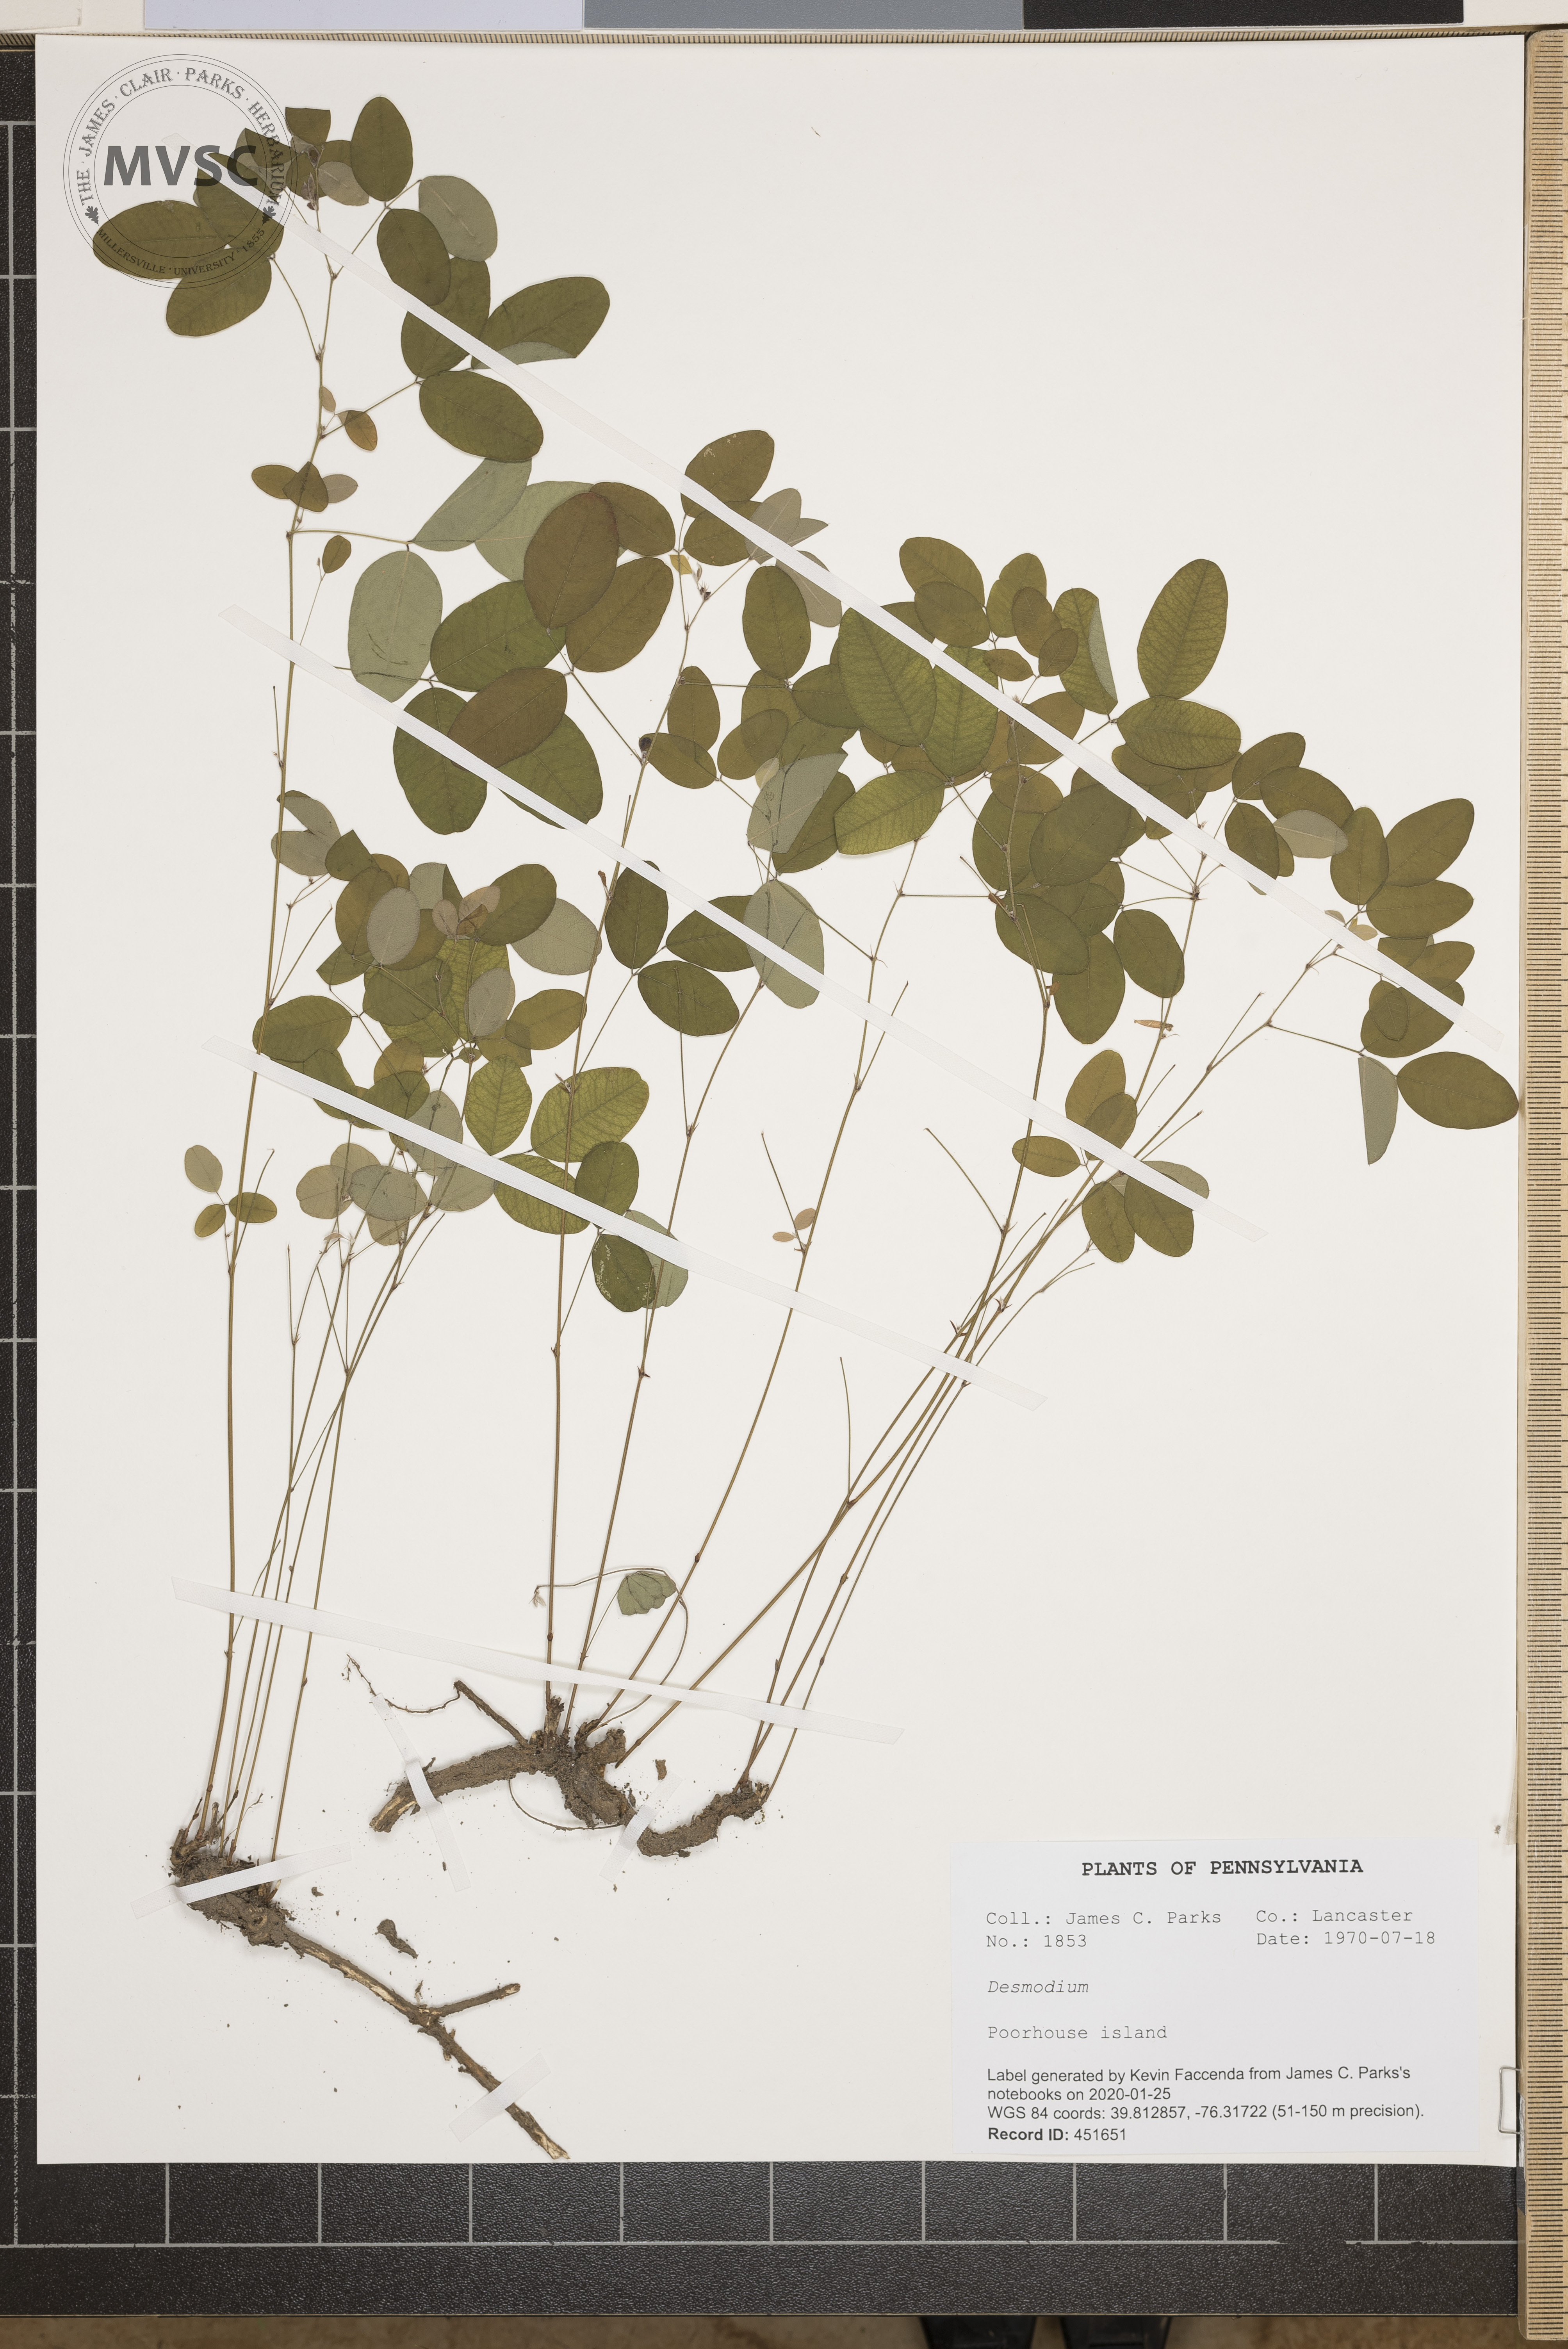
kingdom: Plantae
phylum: Tracheophyta
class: Magnoliopsida
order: Fabales
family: Fabaceae
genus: Desmodium
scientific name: Desmodium
